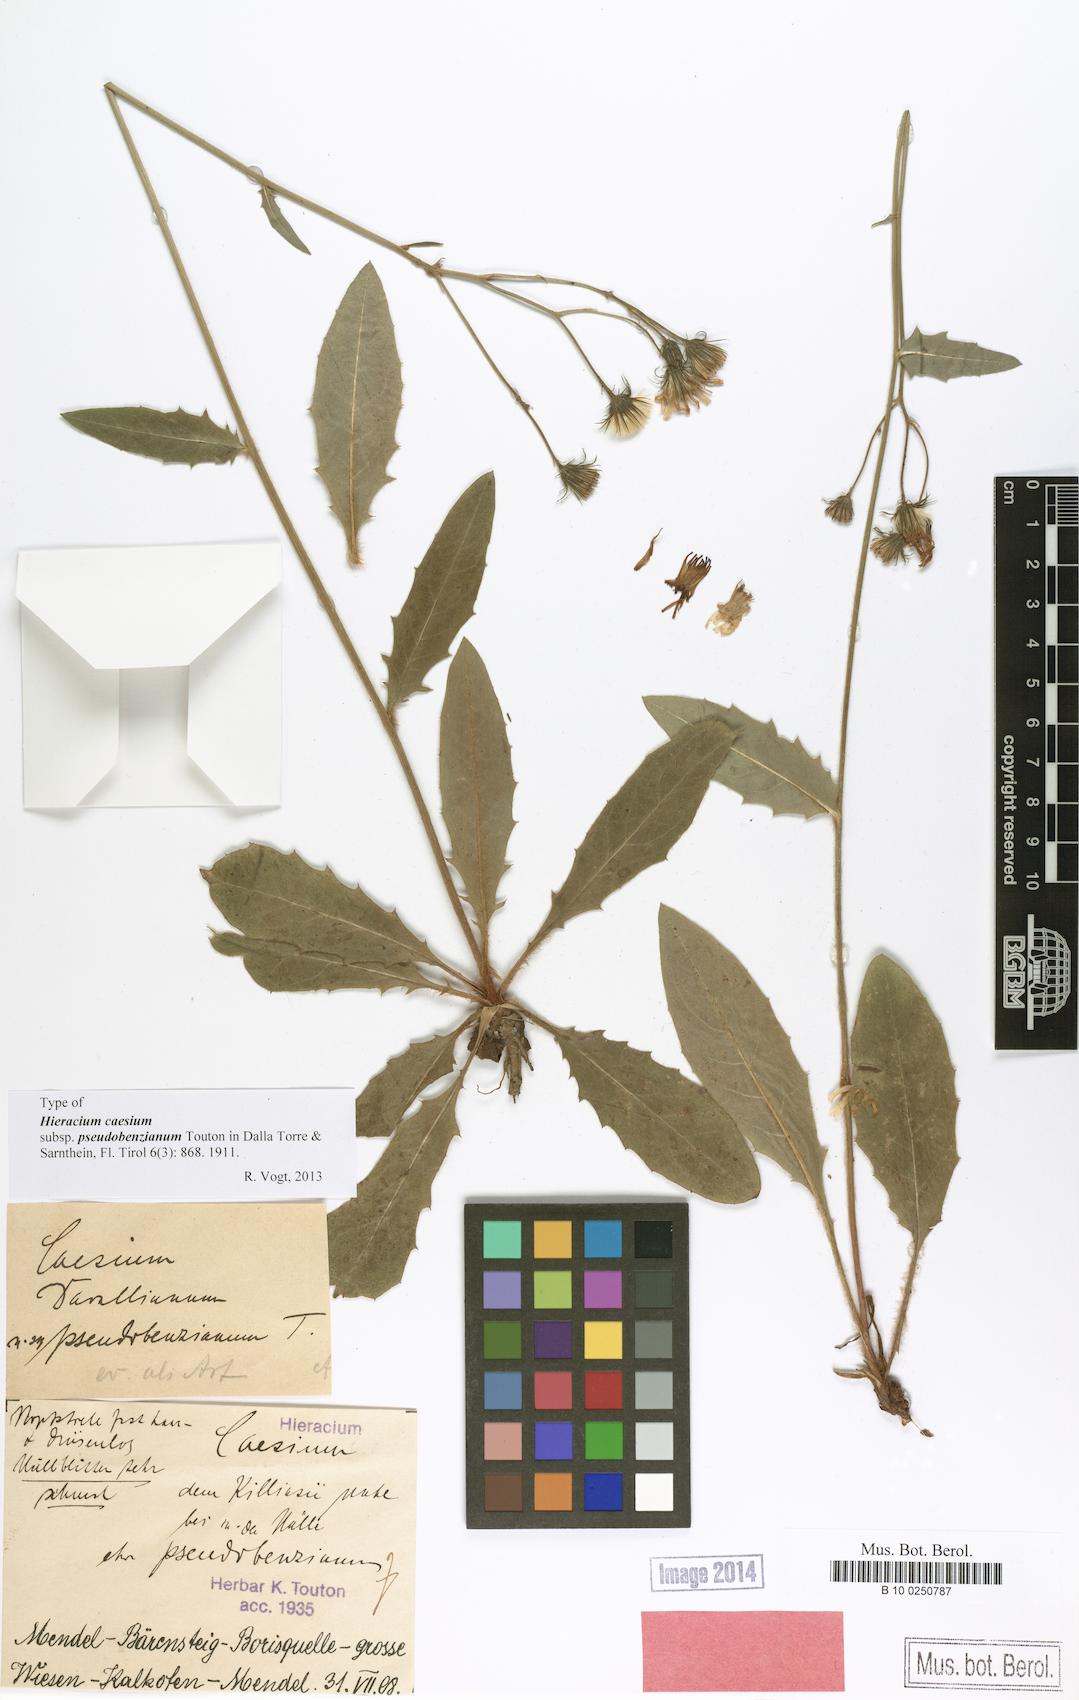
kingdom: Plantae
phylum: Tracheophyta
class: Magnoliopsida
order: Asterales
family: Asteraceae
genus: Hieracium
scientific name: Hieracium benzianum
